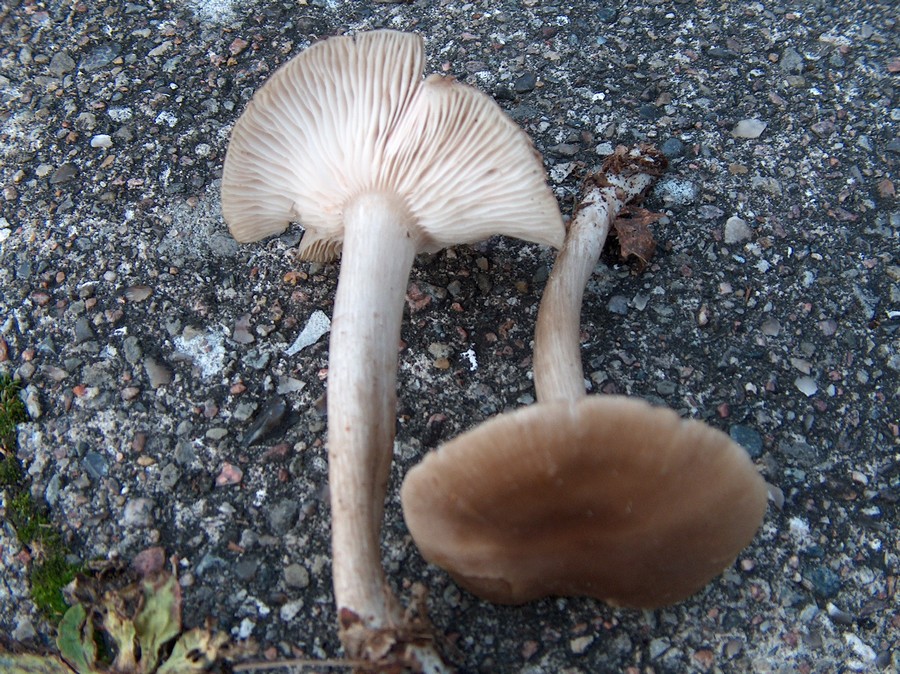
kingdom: Fungi
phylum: Basidiomycota
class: Agaricomycetes
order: Agaricales
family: Entolomataceae
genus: Entoloma
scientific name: Entoloma rhodopolium
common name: skov-rødblad
